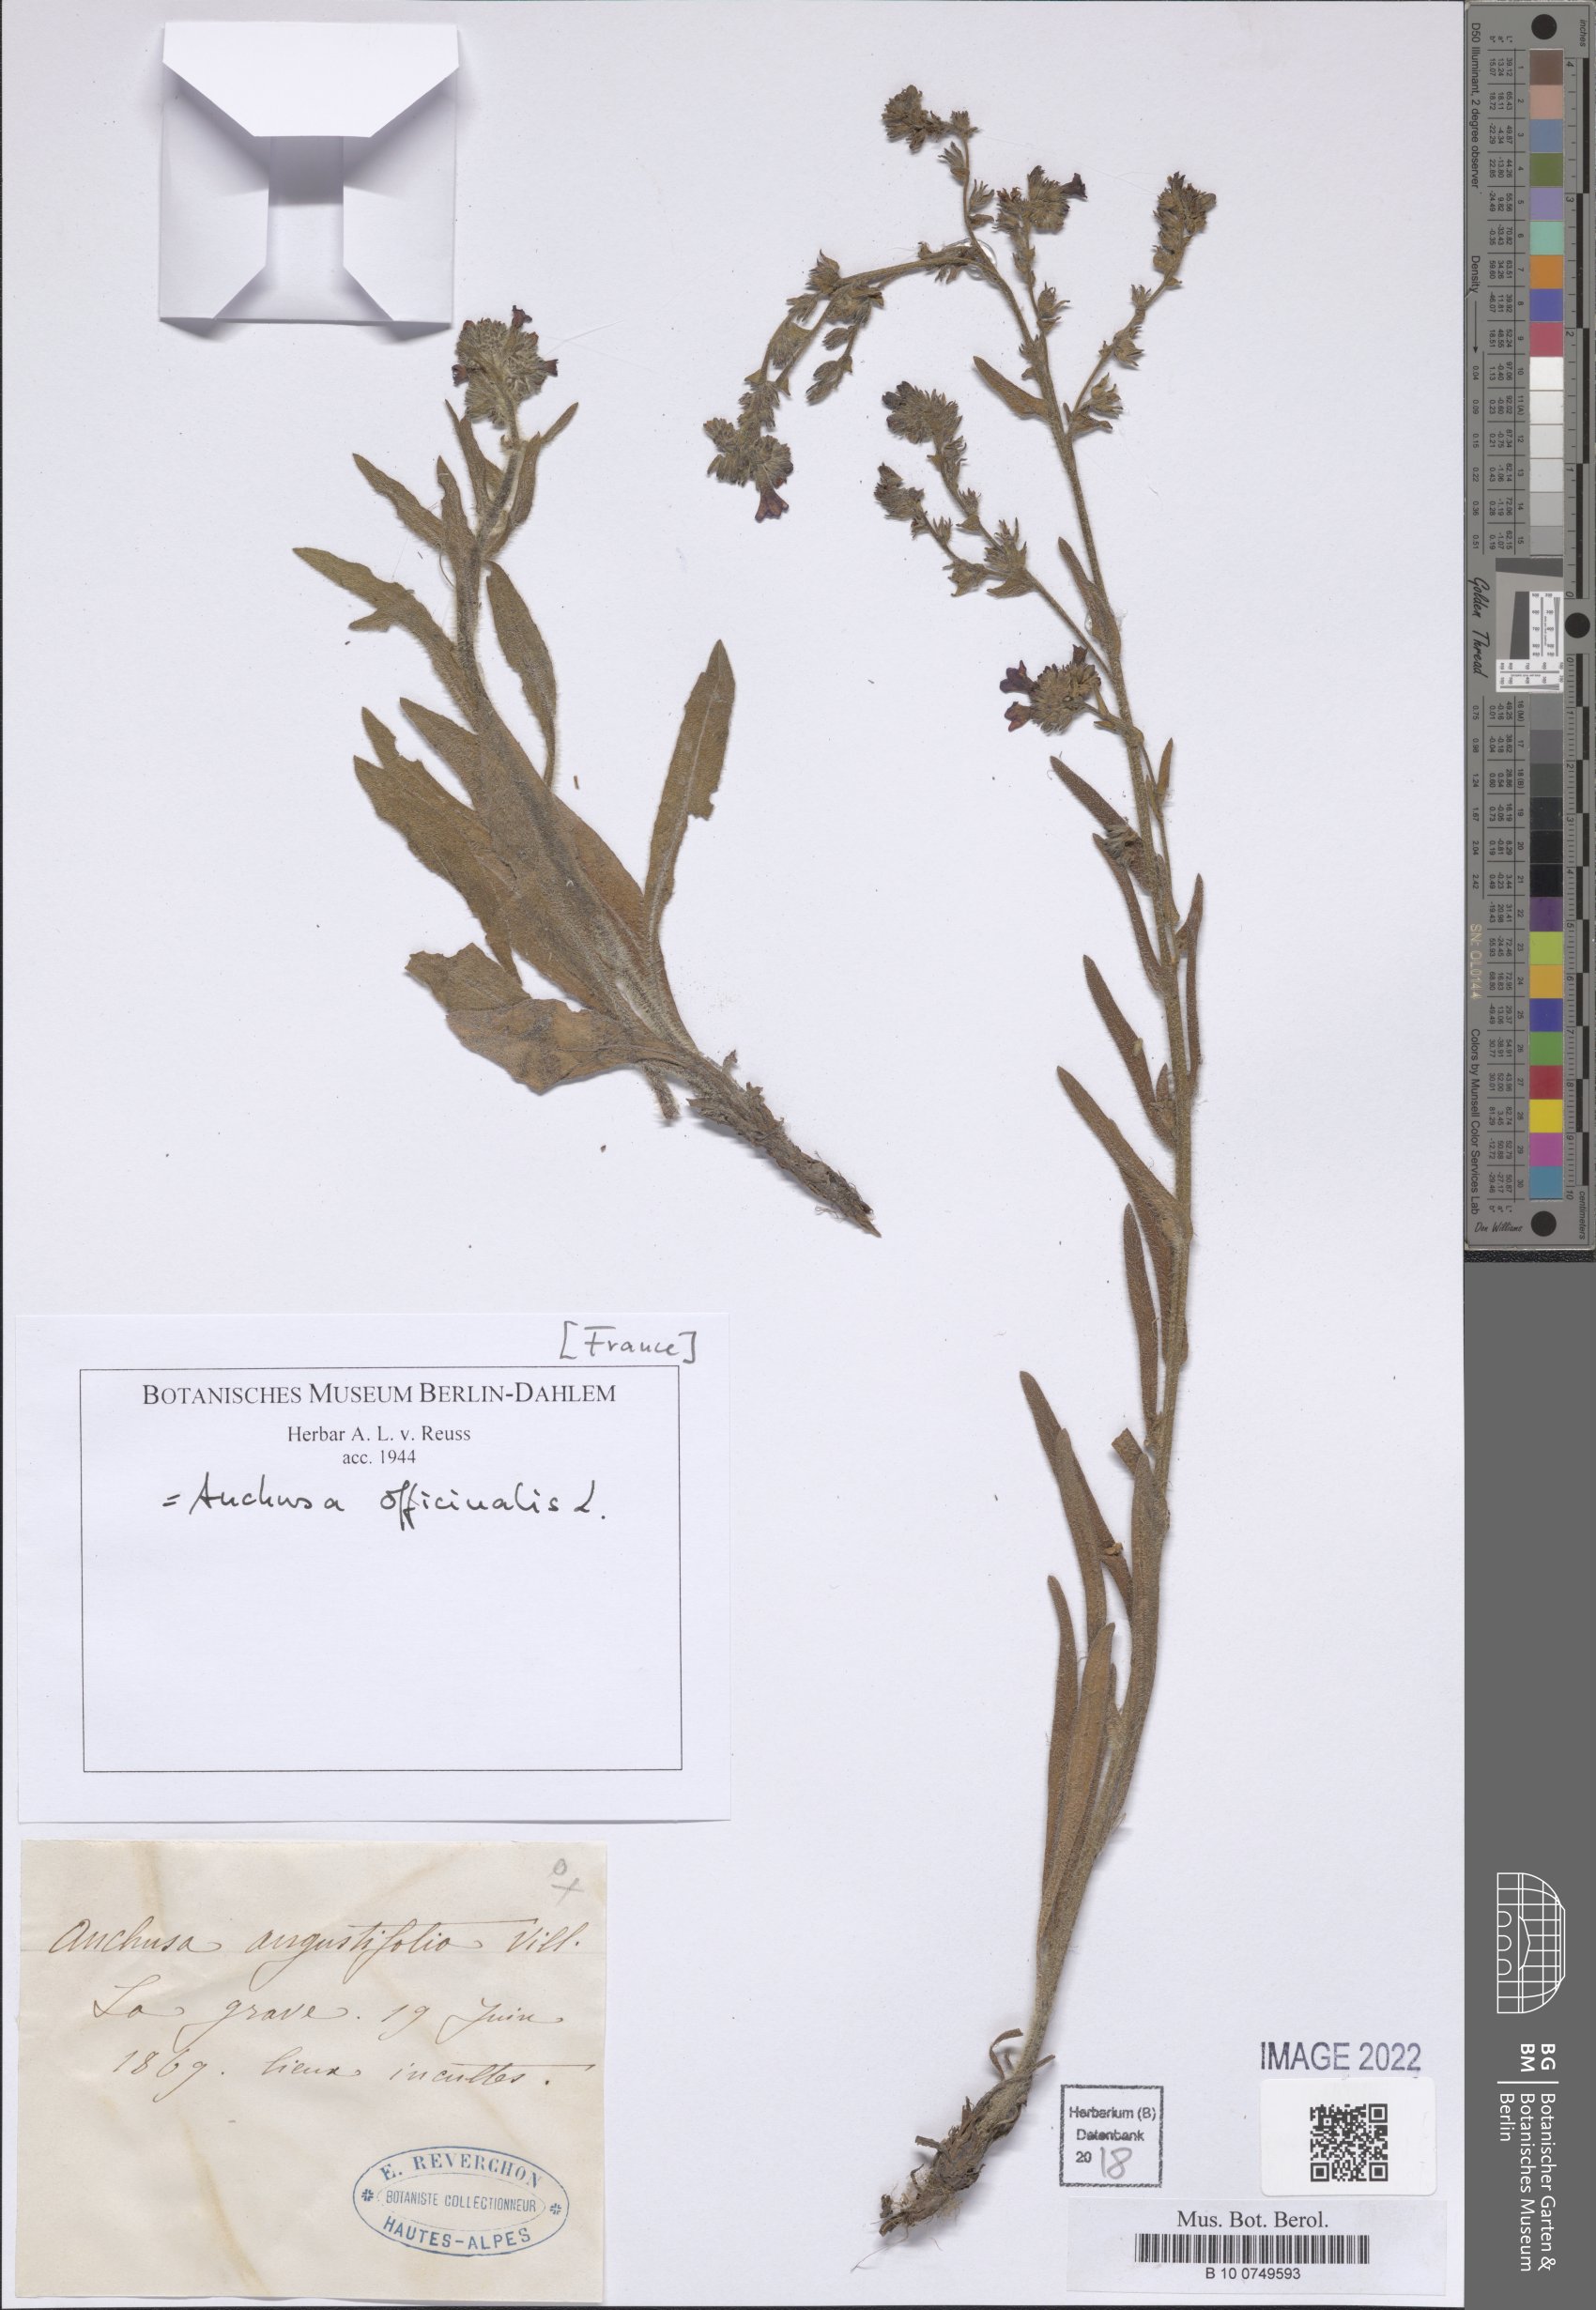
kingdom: Plantae
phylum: Tracheophyta
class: Magnoliopsida
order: Boraginales
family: Boraginaceae
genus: Anchusa
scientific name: Anchusa officinalis
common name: Alkanet
